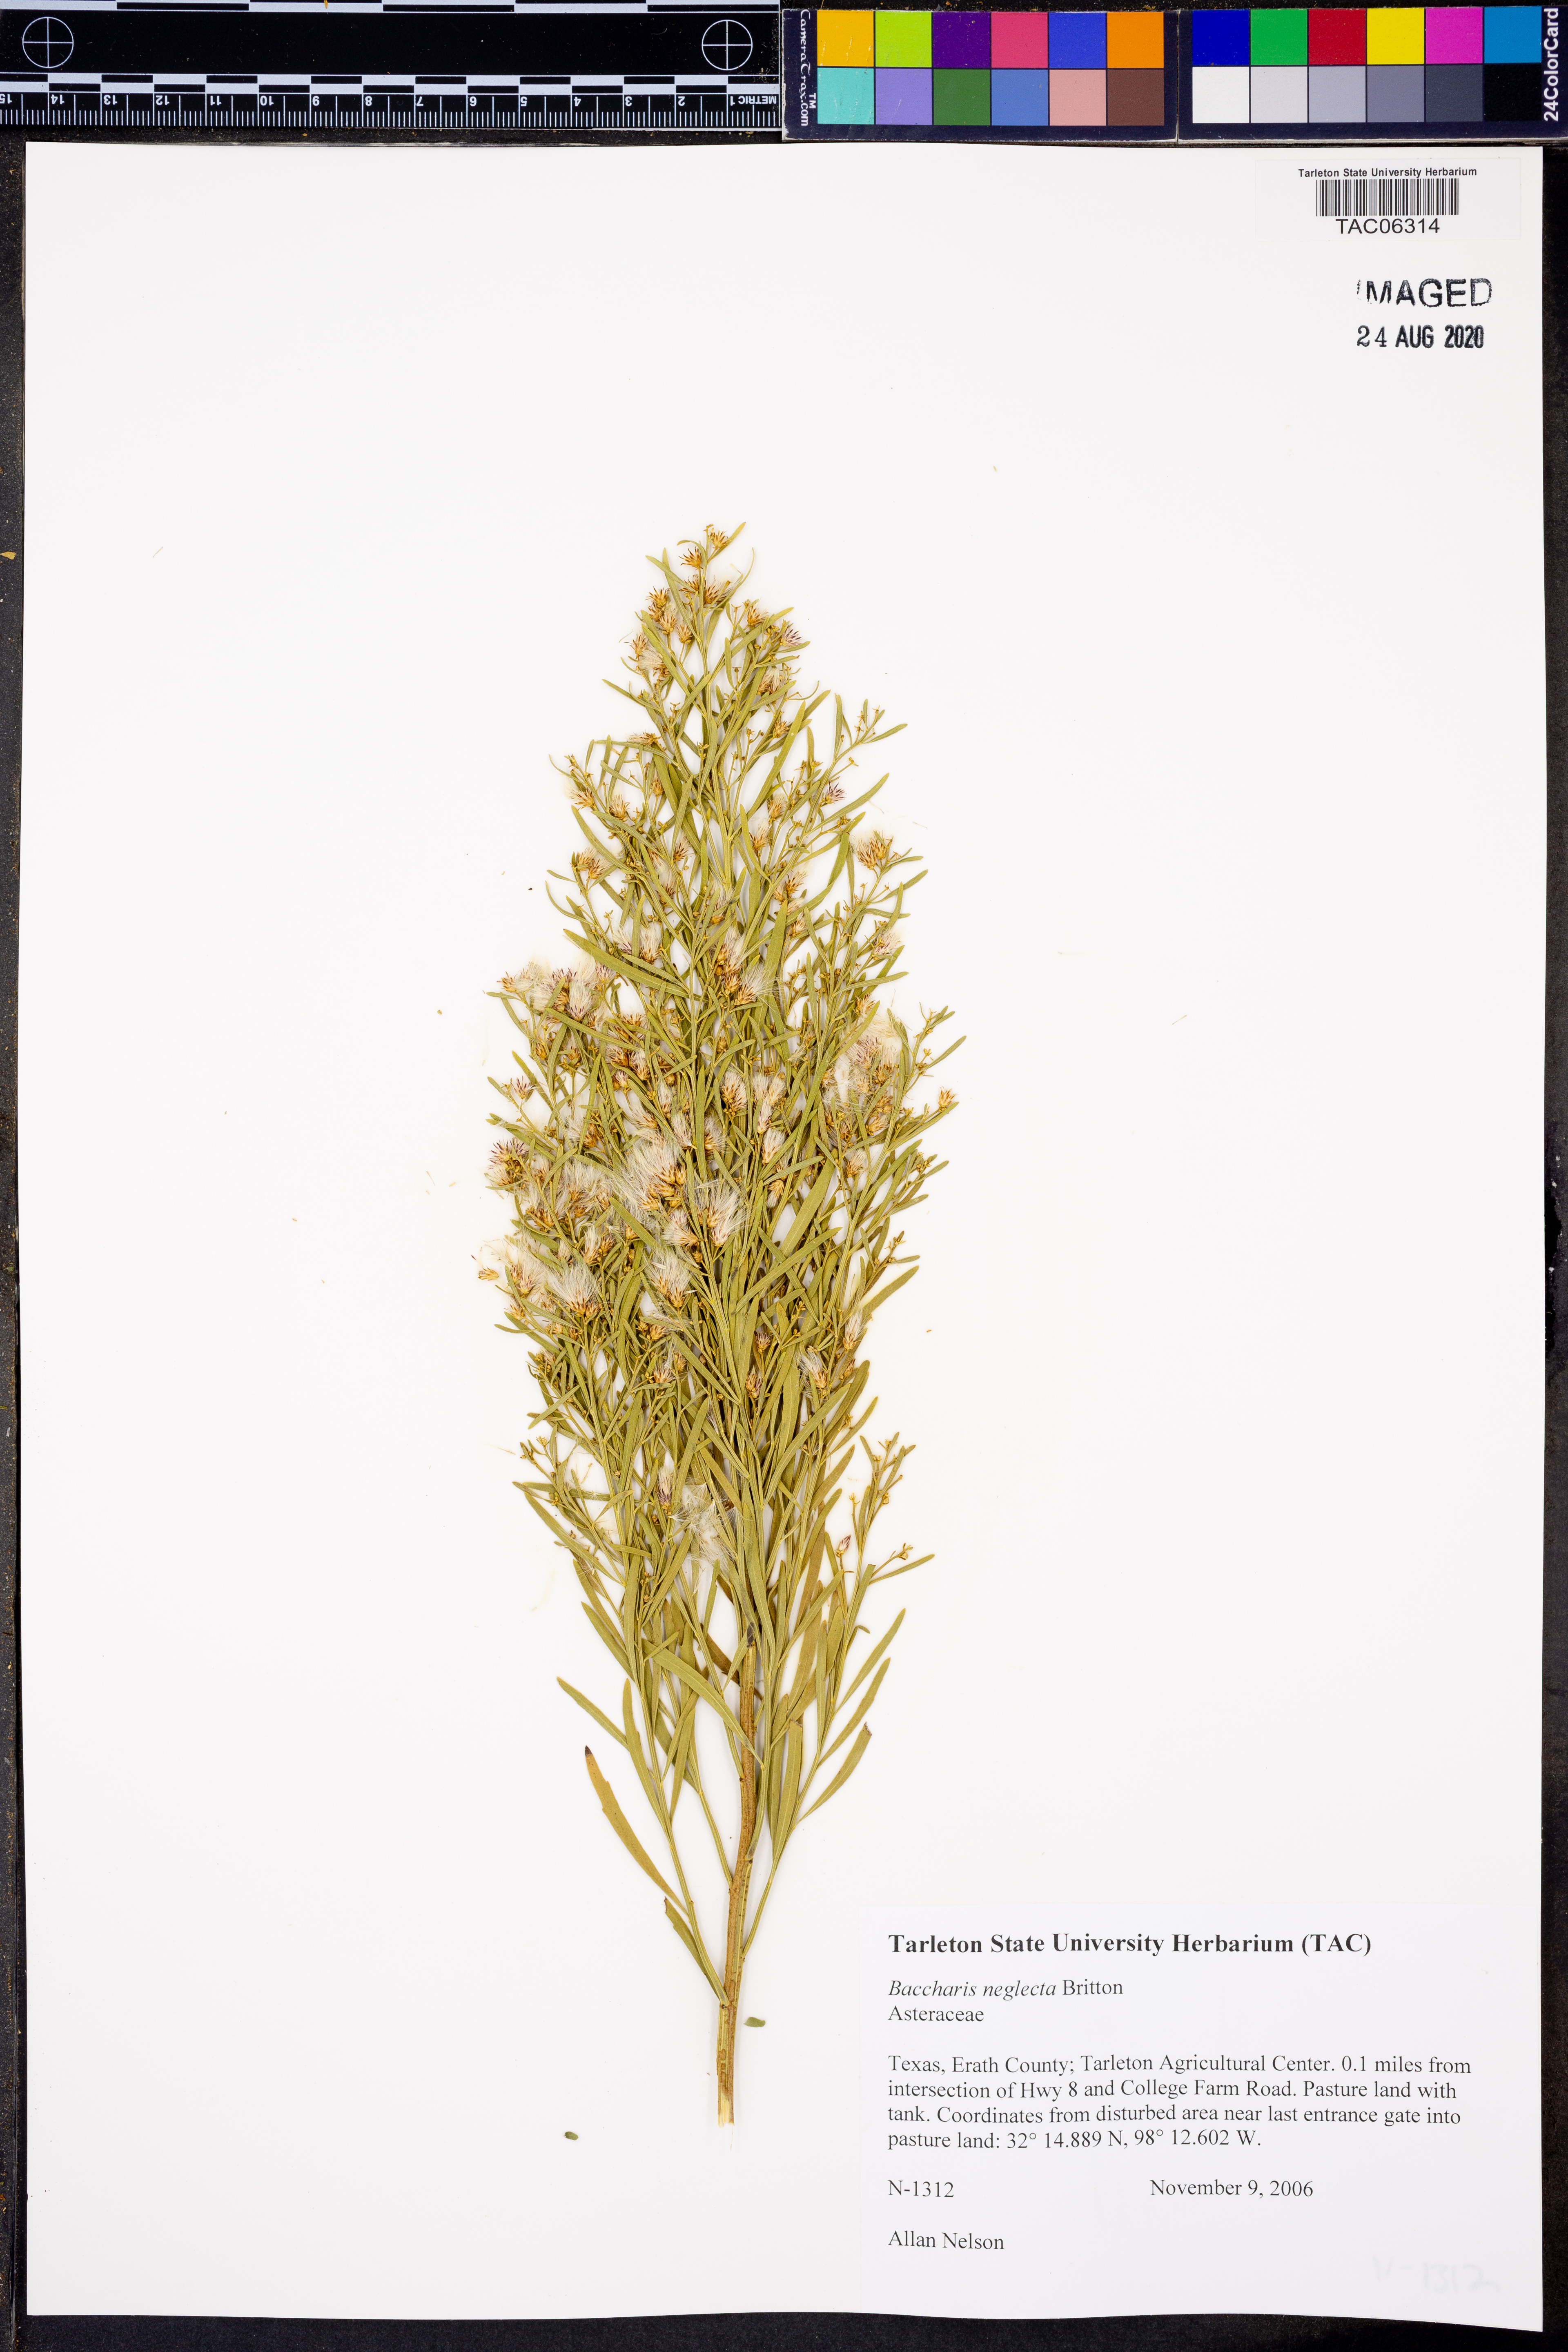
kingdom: Plantae
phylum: Tracheophyta
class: Magnoliopsida
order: Asterales
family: Asteraceae
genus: Baccharis
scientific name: Baccharis neglecta
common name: Roosevelt-weed
